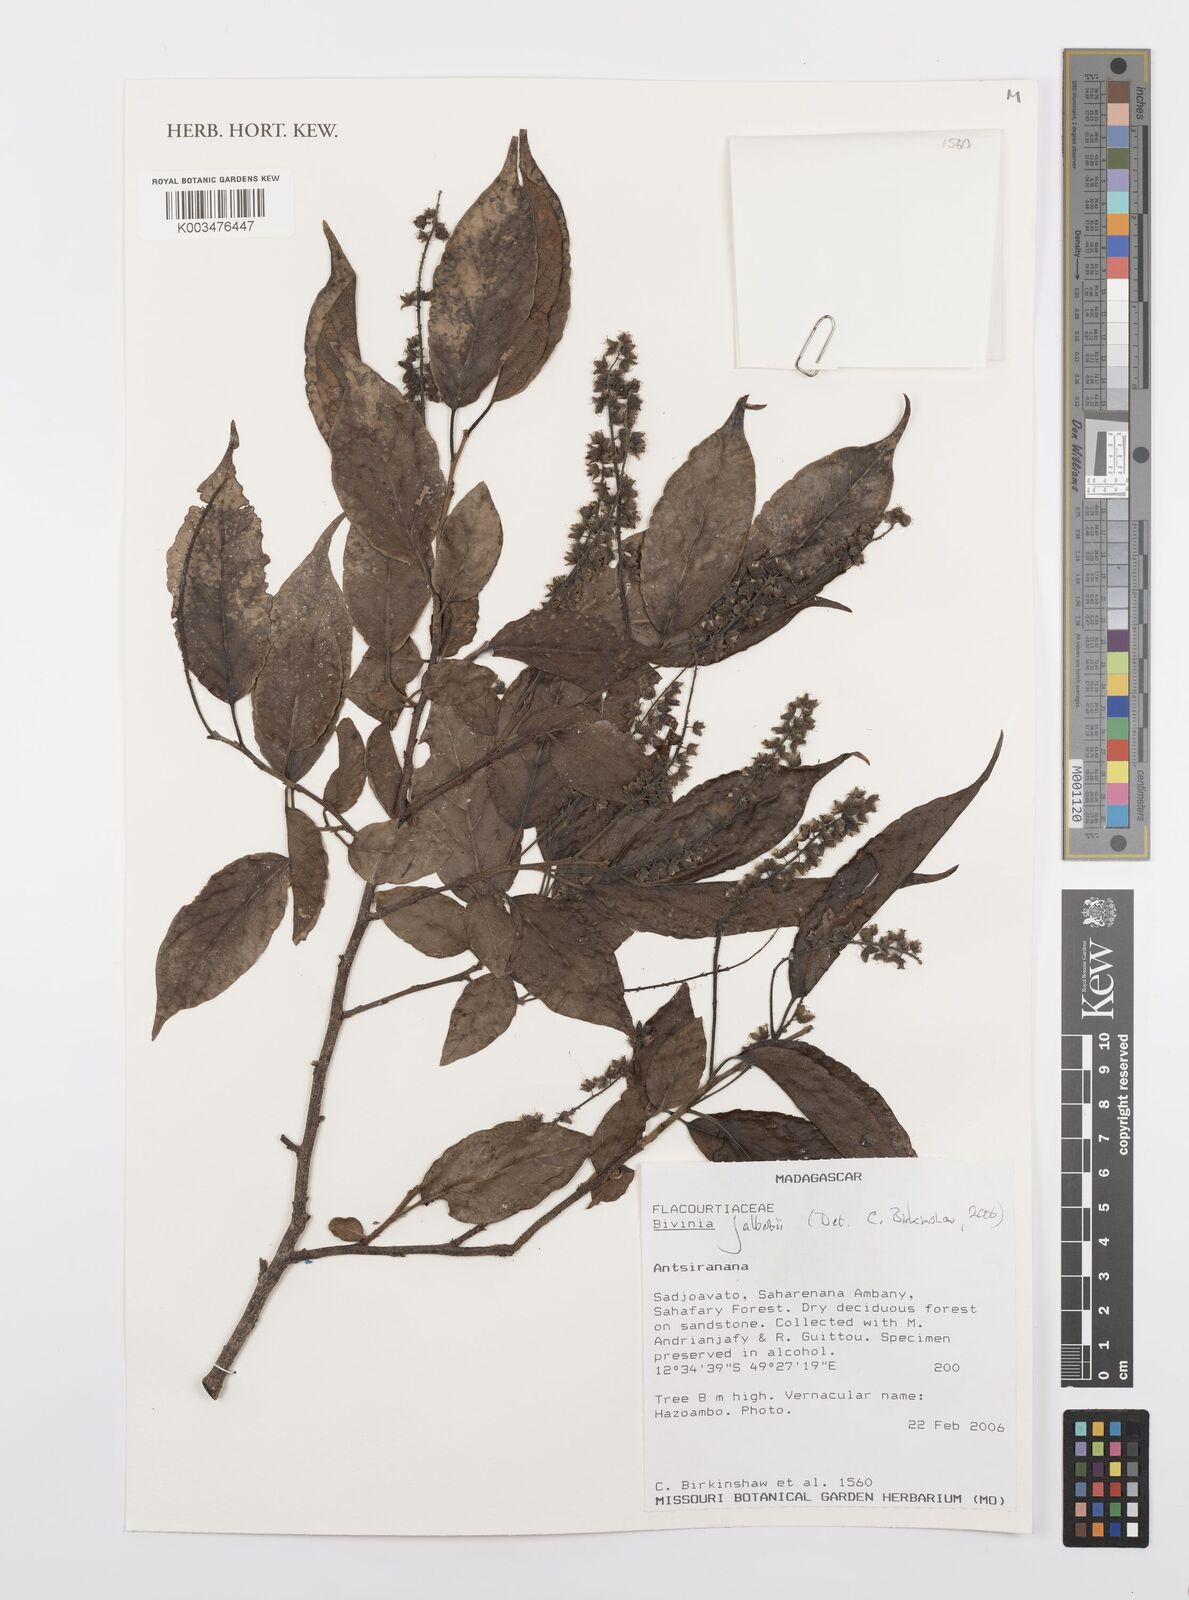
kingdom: Plantae
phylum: Tracheophyta
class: Magnoliopsida
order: Malpighiales
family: Salicaceae
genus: Bivinia
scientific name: Bivinia jalbertii
